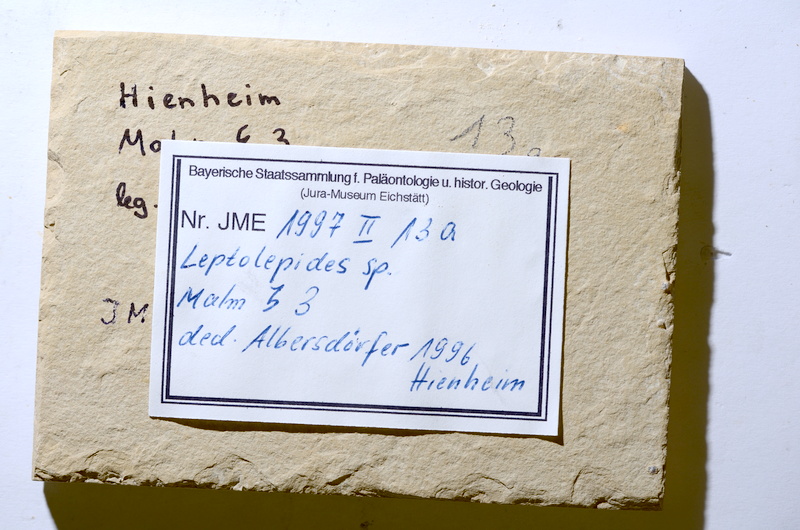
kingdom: Animalia
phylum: Chordata
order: Salmoniformes
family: Orthogonikleithridae
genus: Leptolepides
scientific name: Leptolepides
